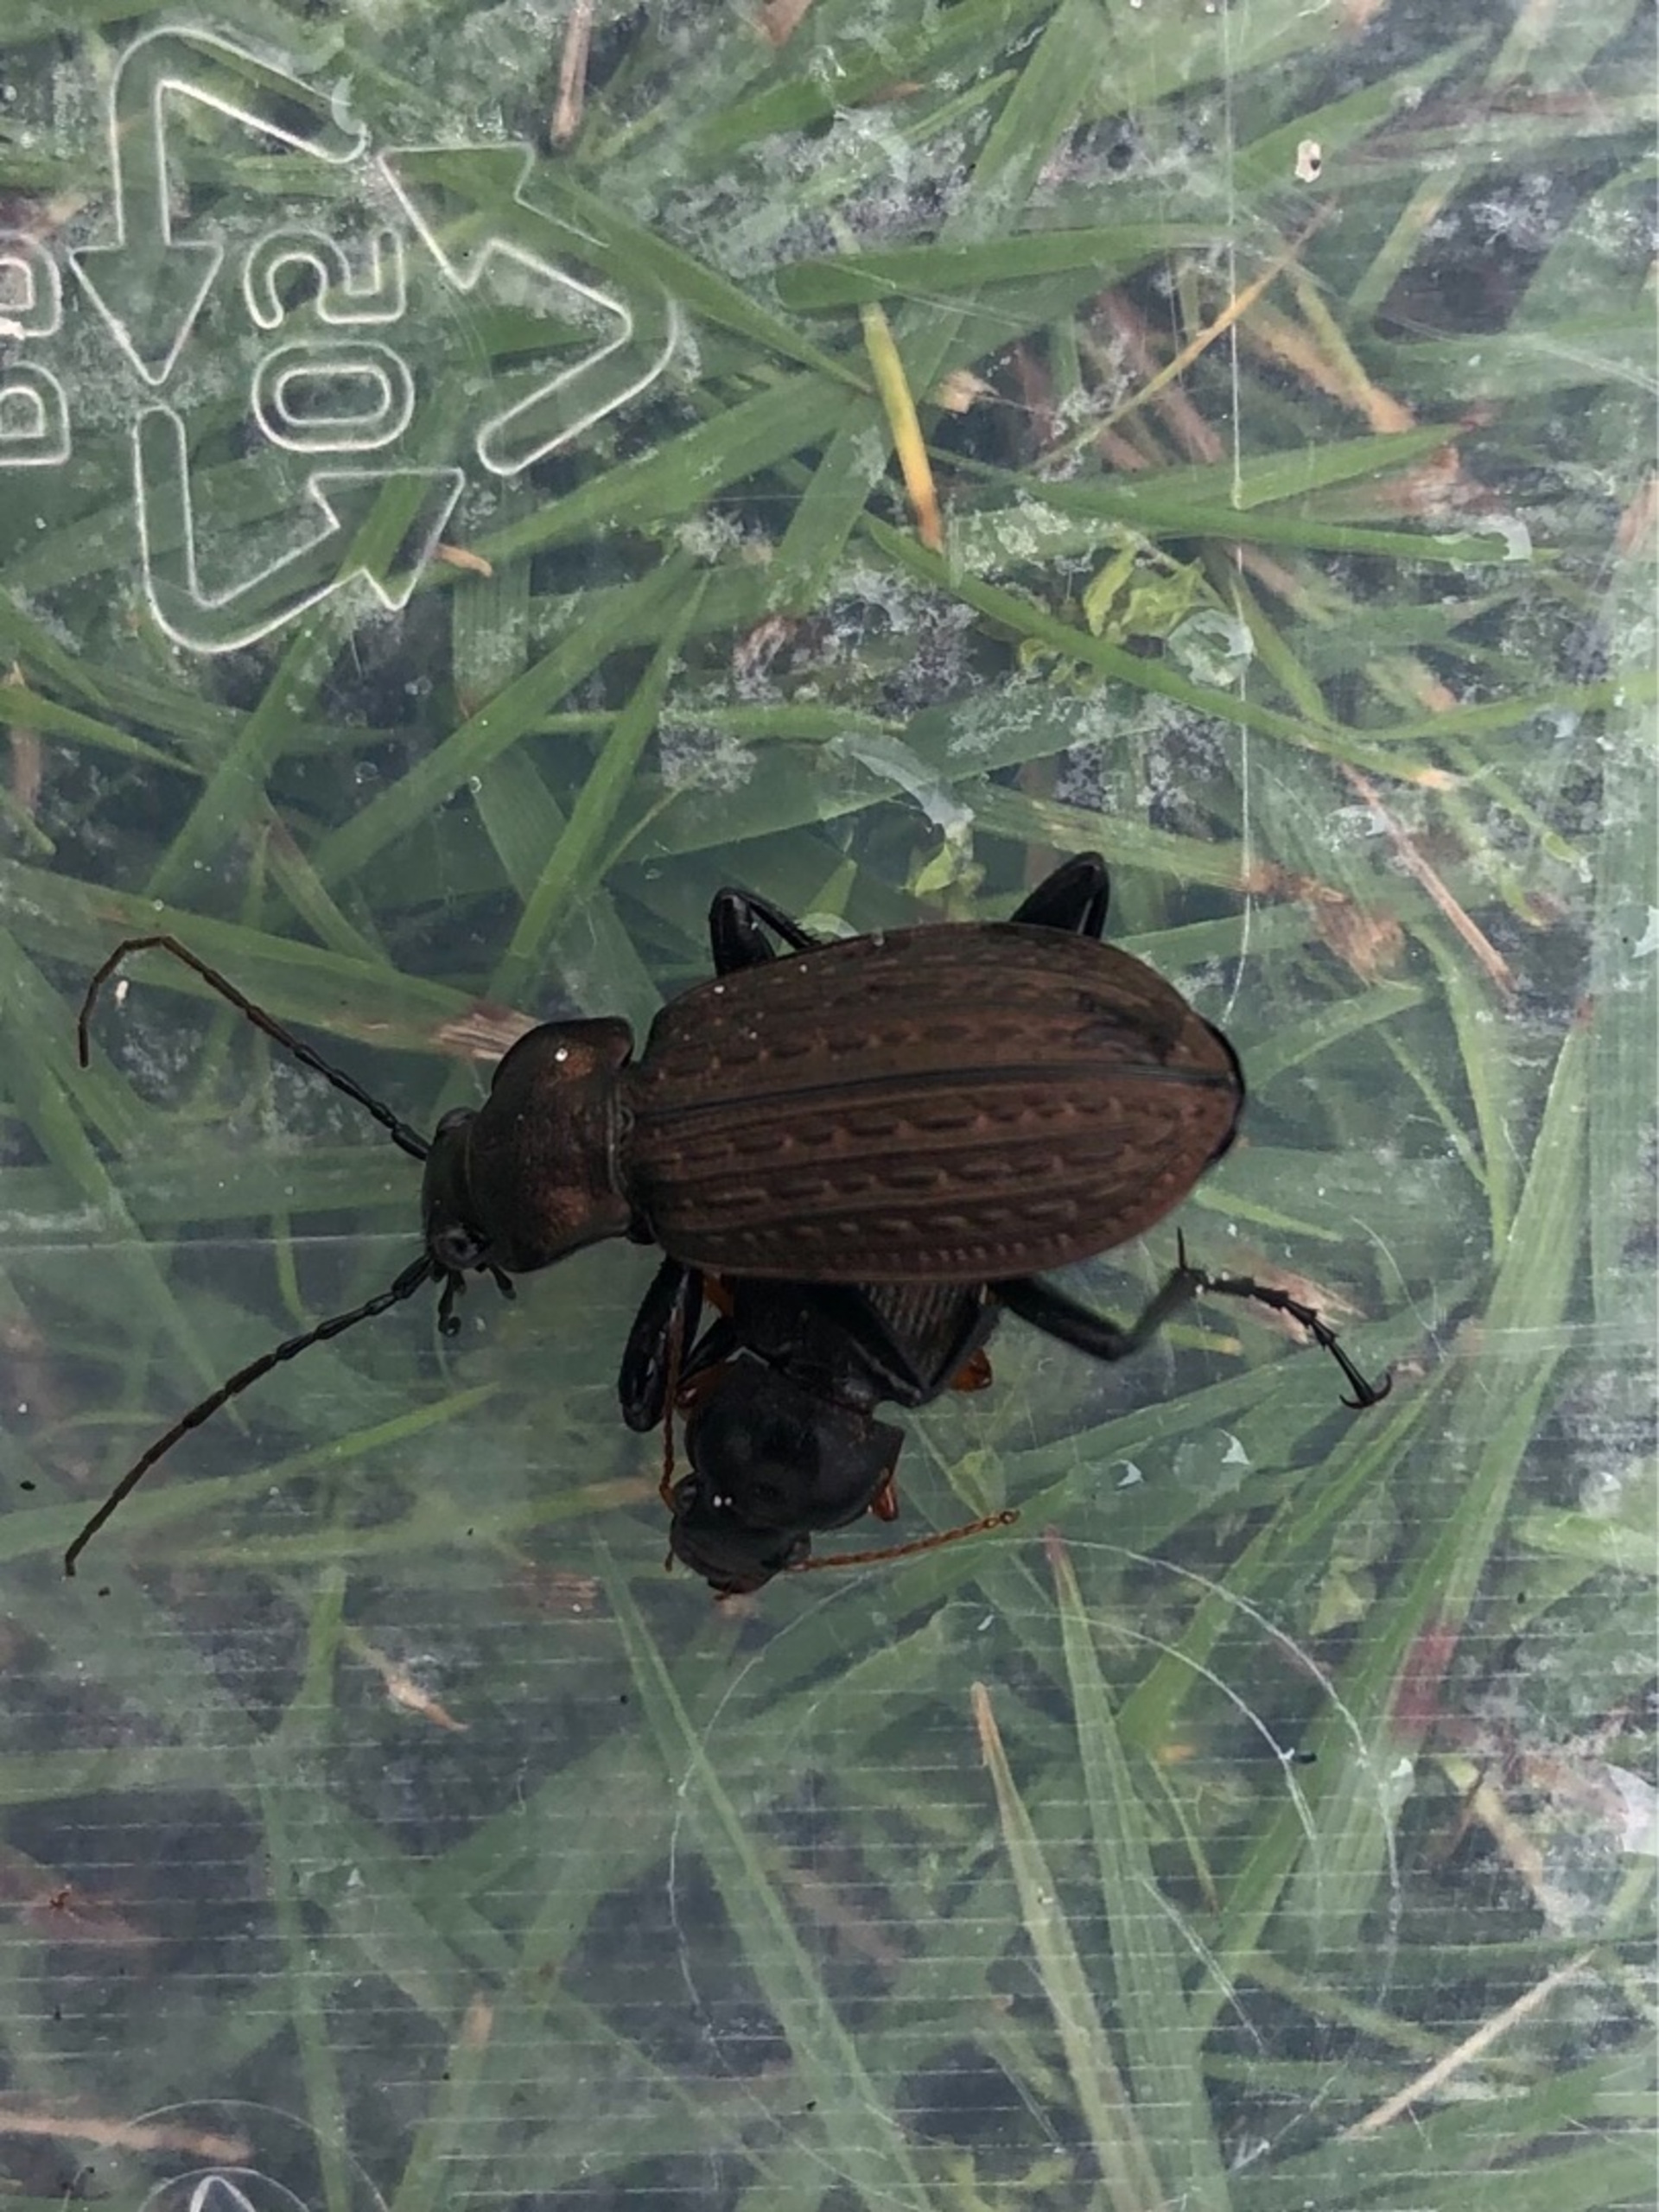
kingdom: Animalia
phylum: Arthropoda
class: Insecta
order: Coleoptera
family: Carabidae
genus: Carabus
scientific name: Carabus granulatus
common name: Kornet løber
